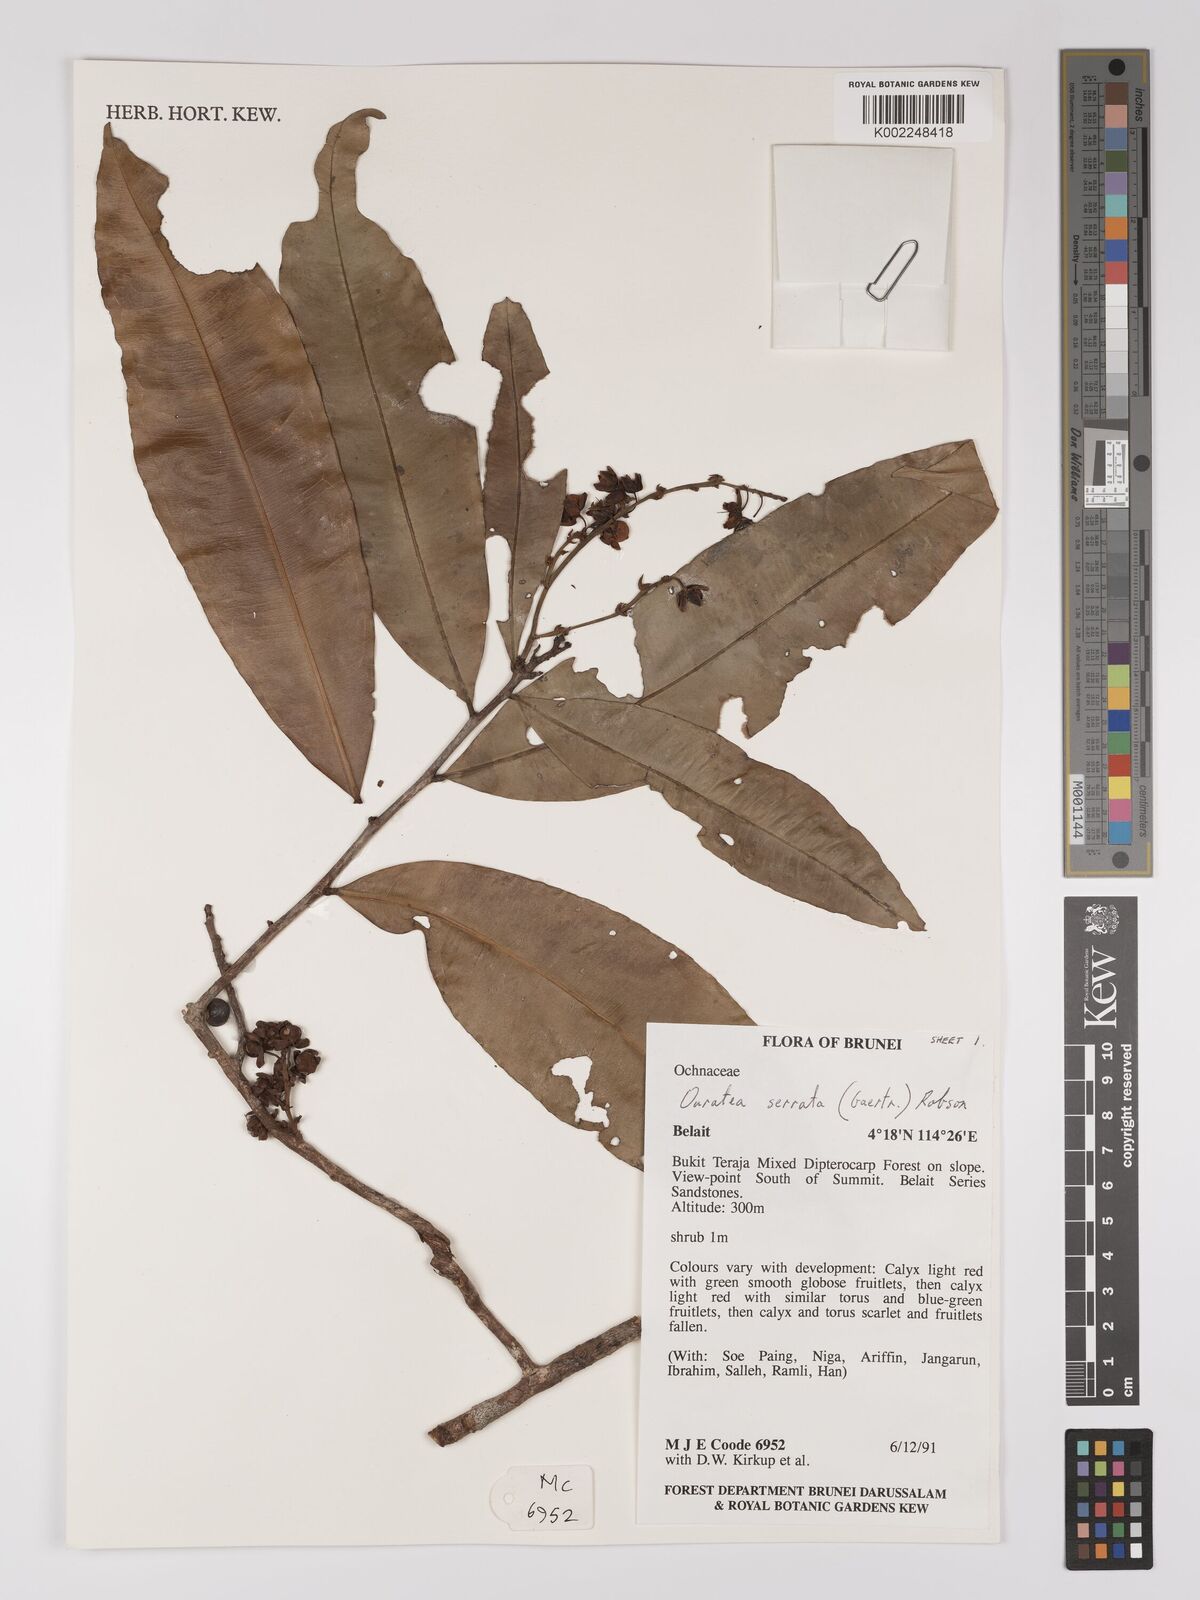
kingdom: Plantae
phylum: Tracheophyta
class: Magnoliopsida
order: Malpighiales
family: Ochnaceae
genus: Gomphia
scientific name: Gomphia serrata
